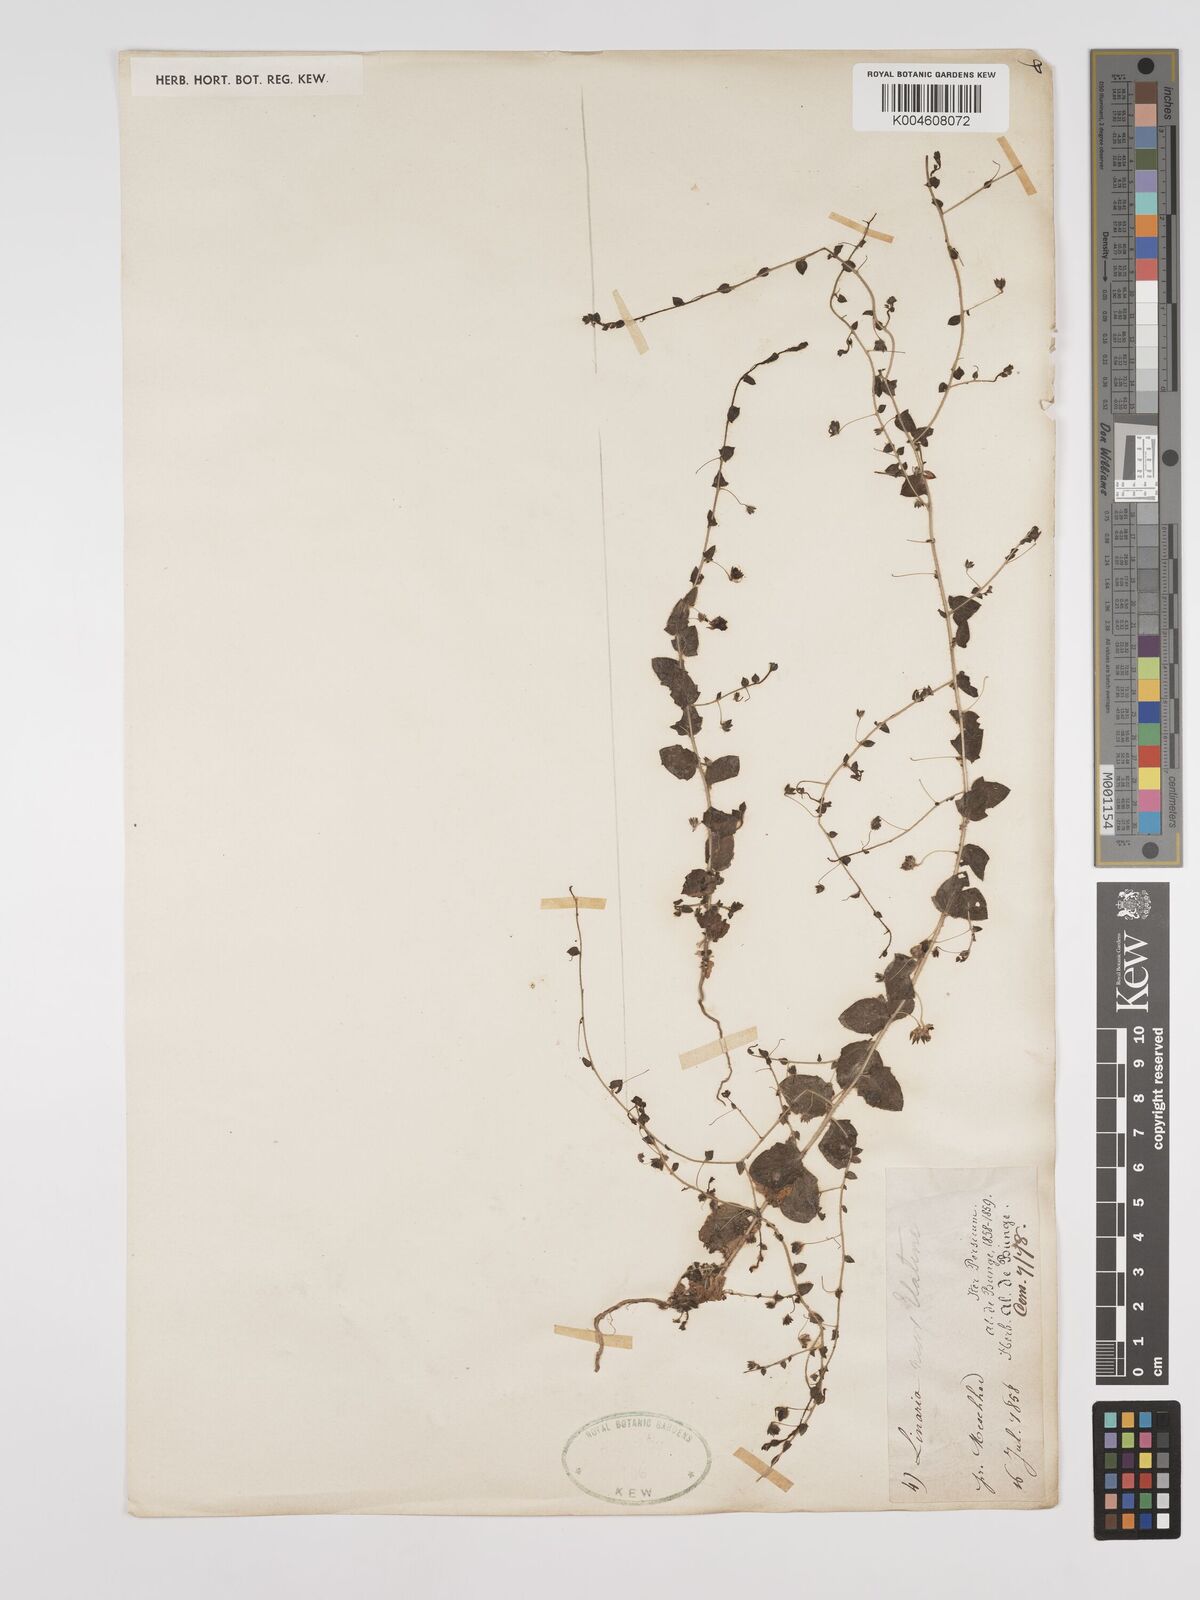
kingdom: Plantae
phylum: Tracheophyta
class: Magnoliopsida
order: Lamiales
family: Plantaginaceae
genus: Kickxia
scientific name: Kickxia elatine
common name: Sharp-leaved fluellen
